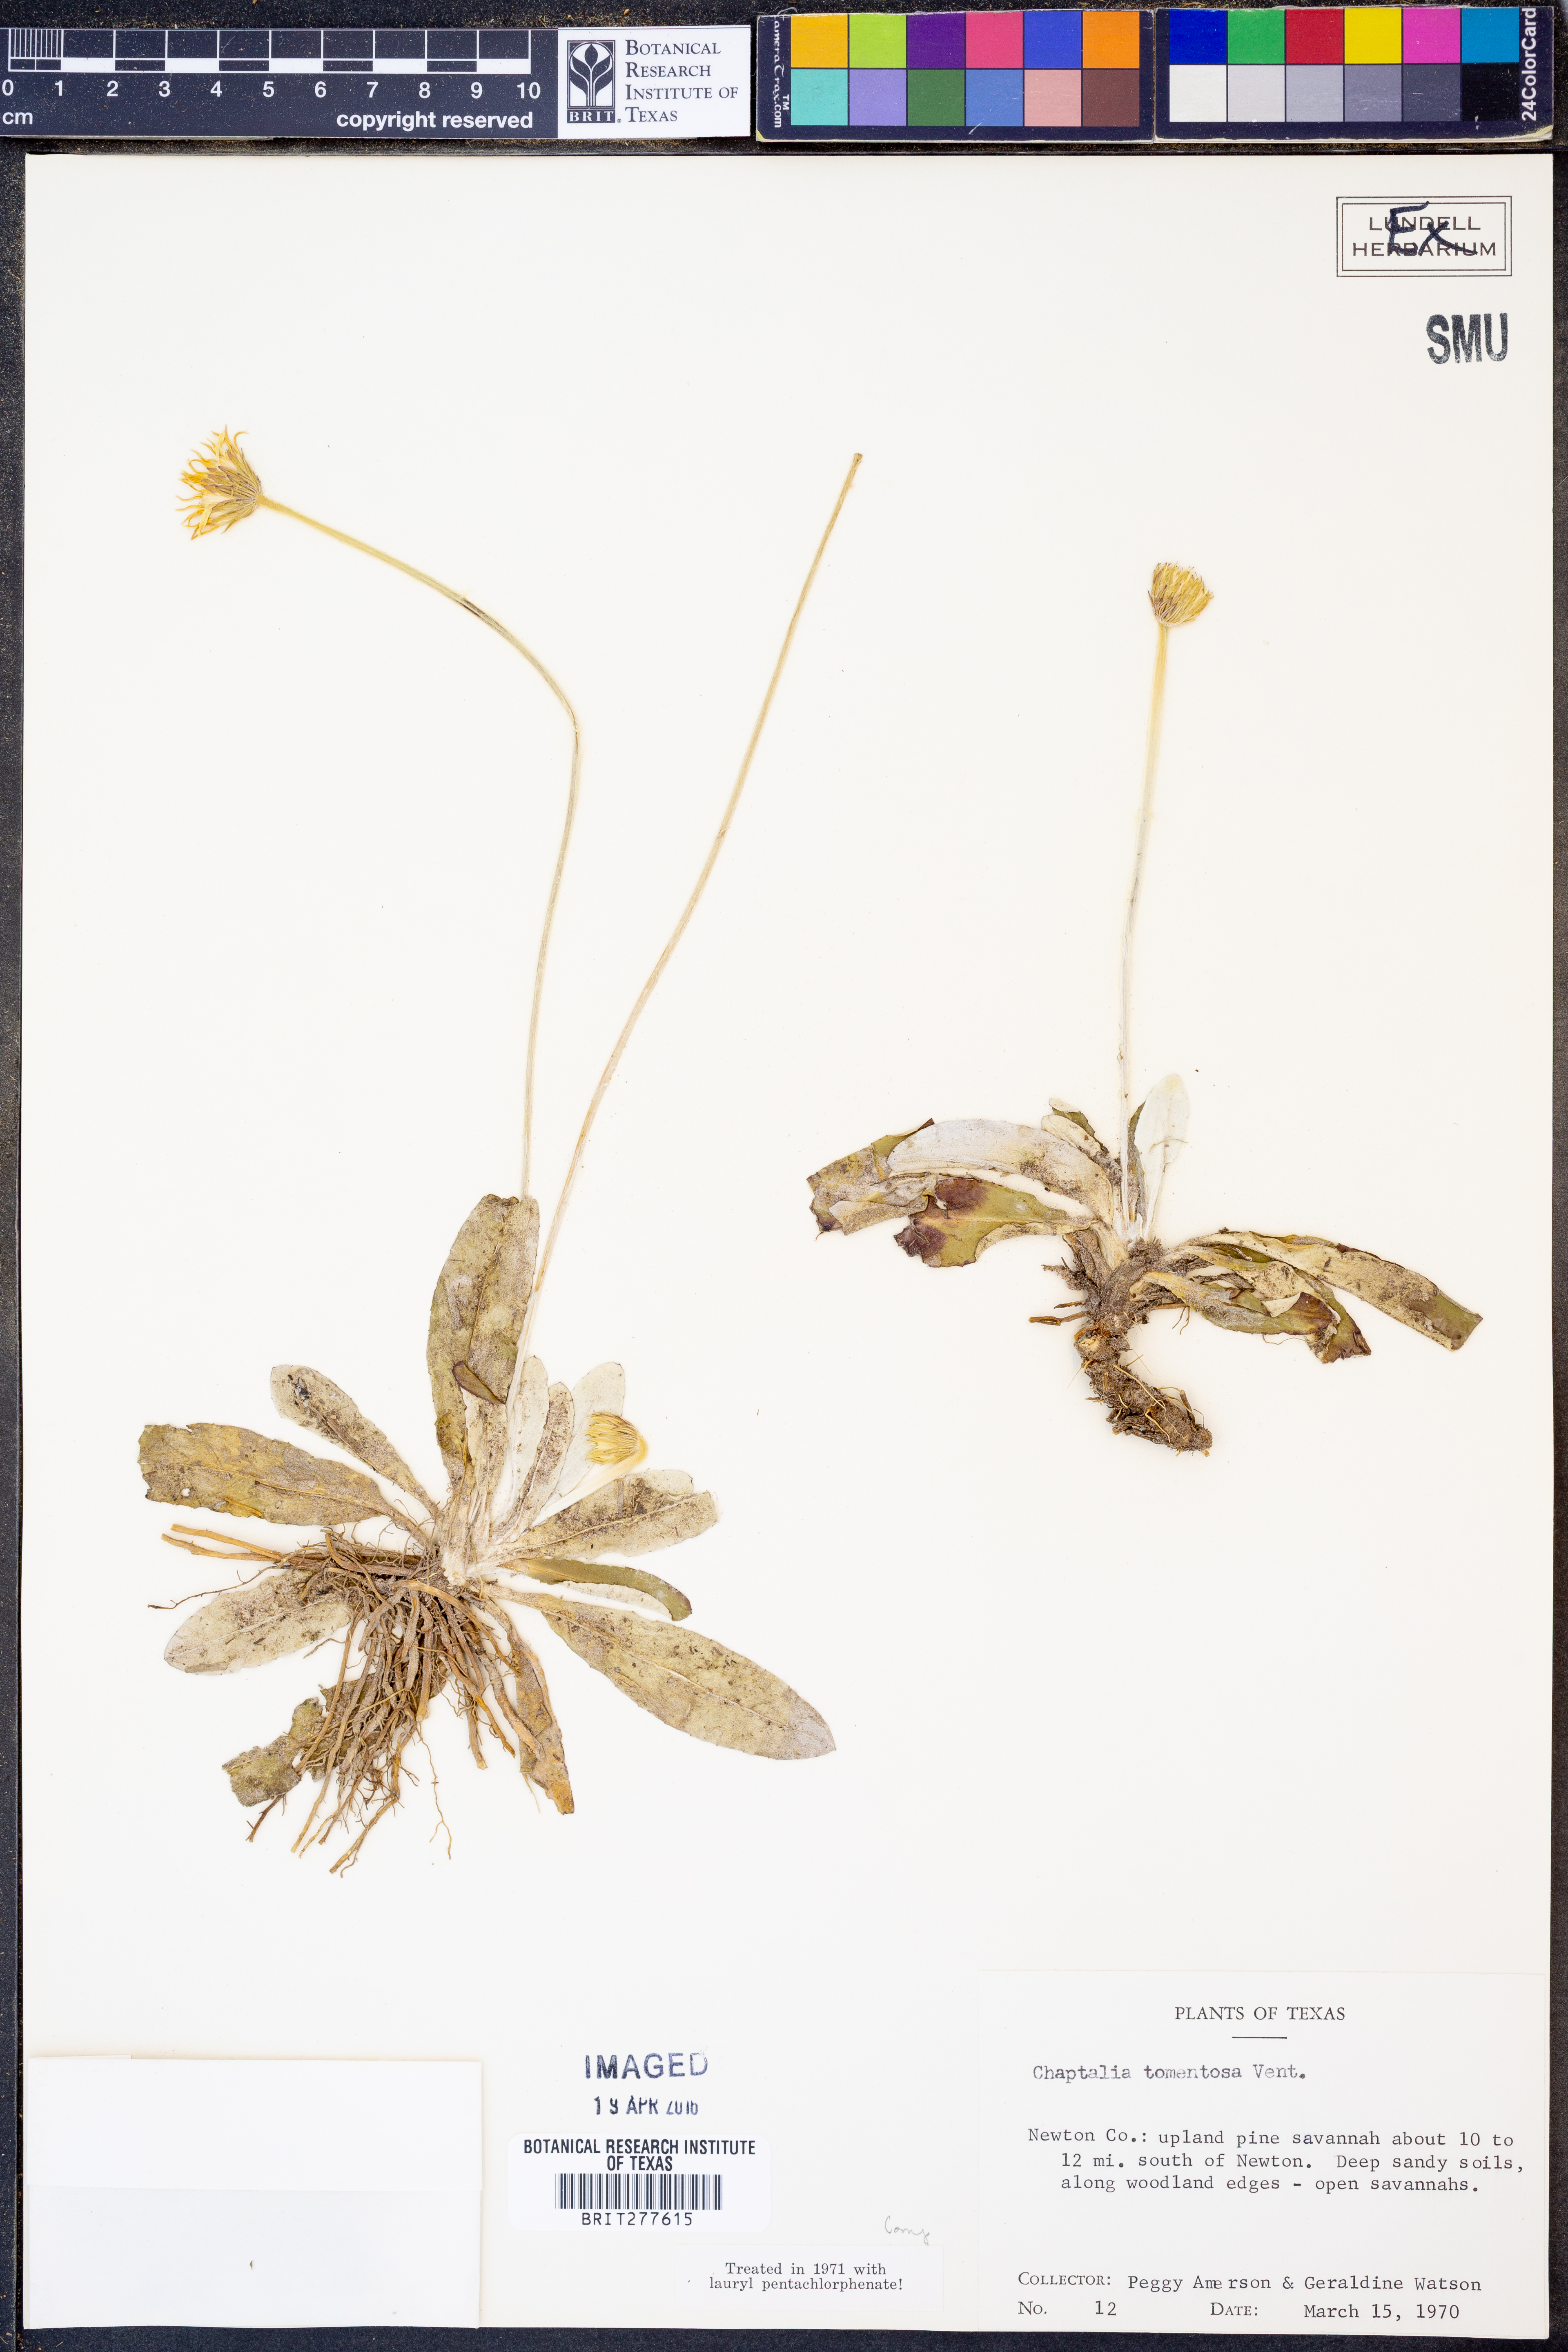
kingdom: Plantae
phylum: Tracheophyta
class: Magnoliopsida
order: Asterales
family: Asteraceae
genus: Chaptalia
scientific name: Chaptalia tomentosa
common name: Woolly sunbonnet
